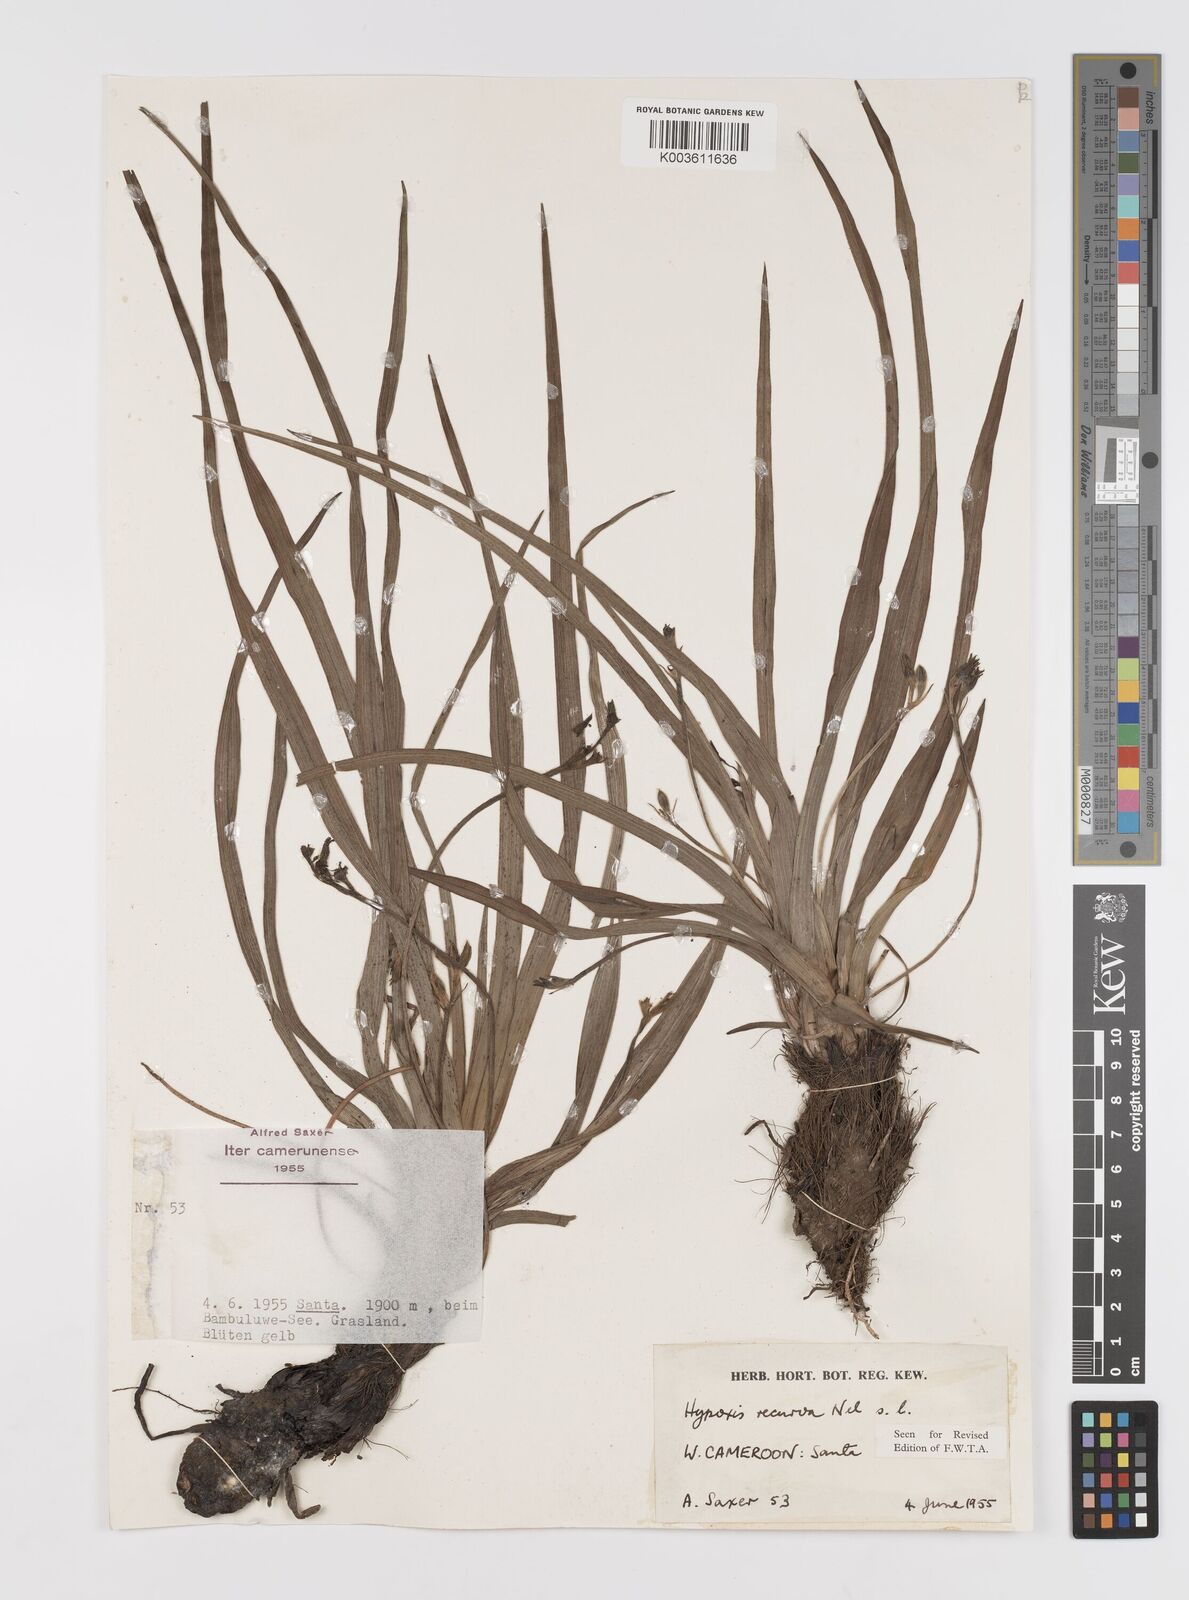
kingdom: Plantae
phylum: Tracheophyta
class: Liliopsida
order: Asparagales
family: Hypoxidaceae
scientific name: Hypoxidaceae
